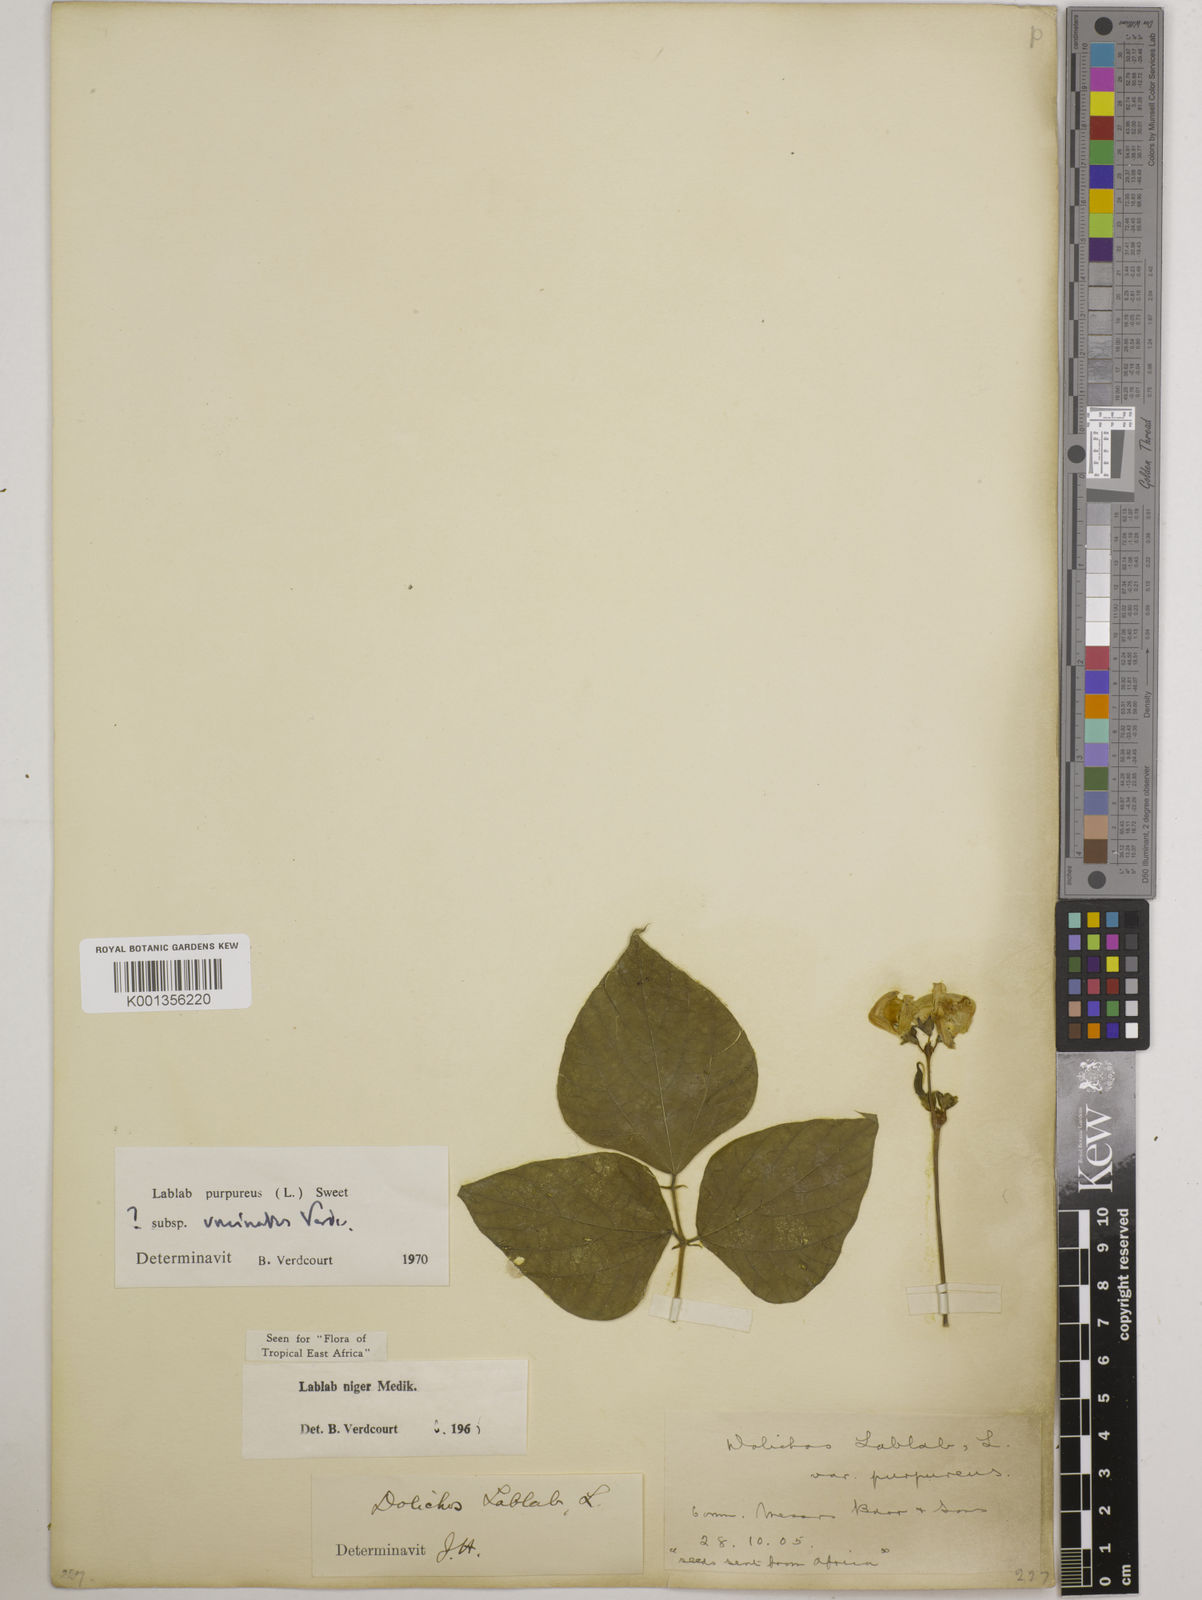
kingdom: Plantae
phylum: Tracheophyta
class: Magnoliopsida
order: Fabales
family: Fabaceae
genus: Lablab
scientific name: Lablab purpureus
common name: Lablab-bean
